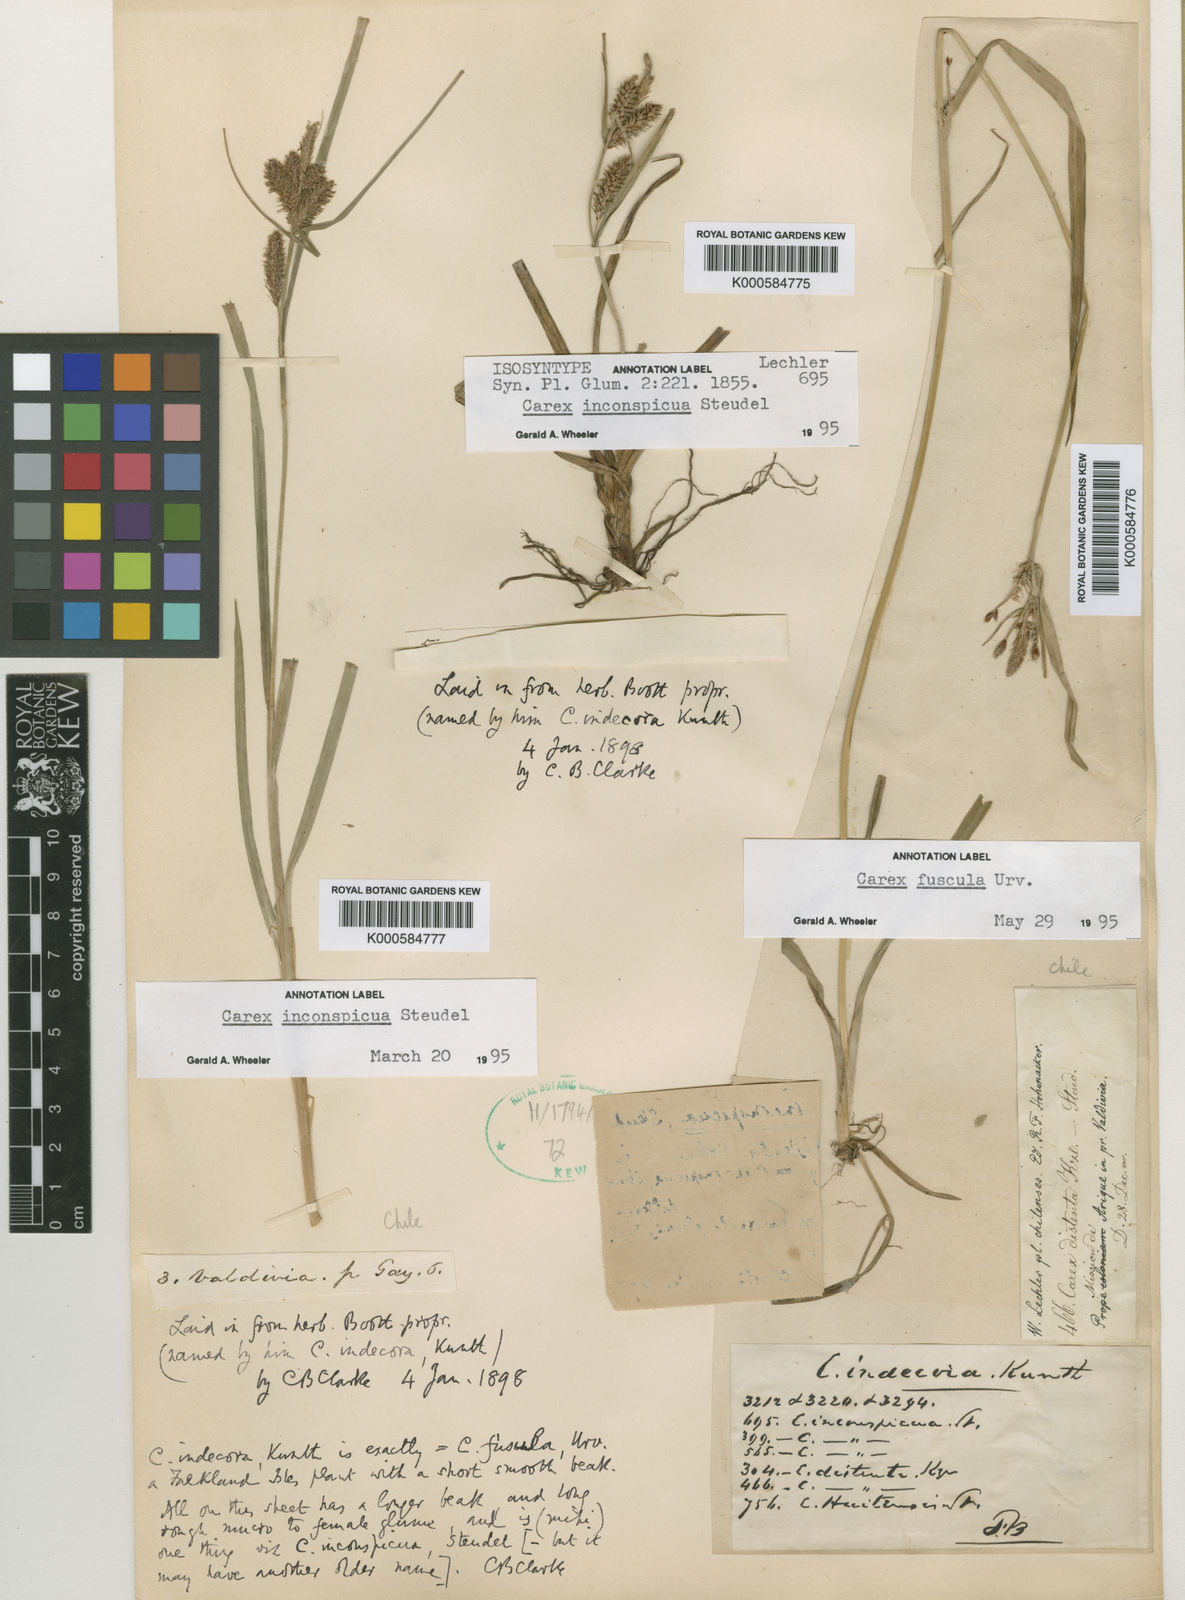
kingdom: Plantae
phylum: Tracheophyta
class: Liliopsida
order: Poales
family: Cyperaceae
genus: Carex
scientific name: Carex fuscula
